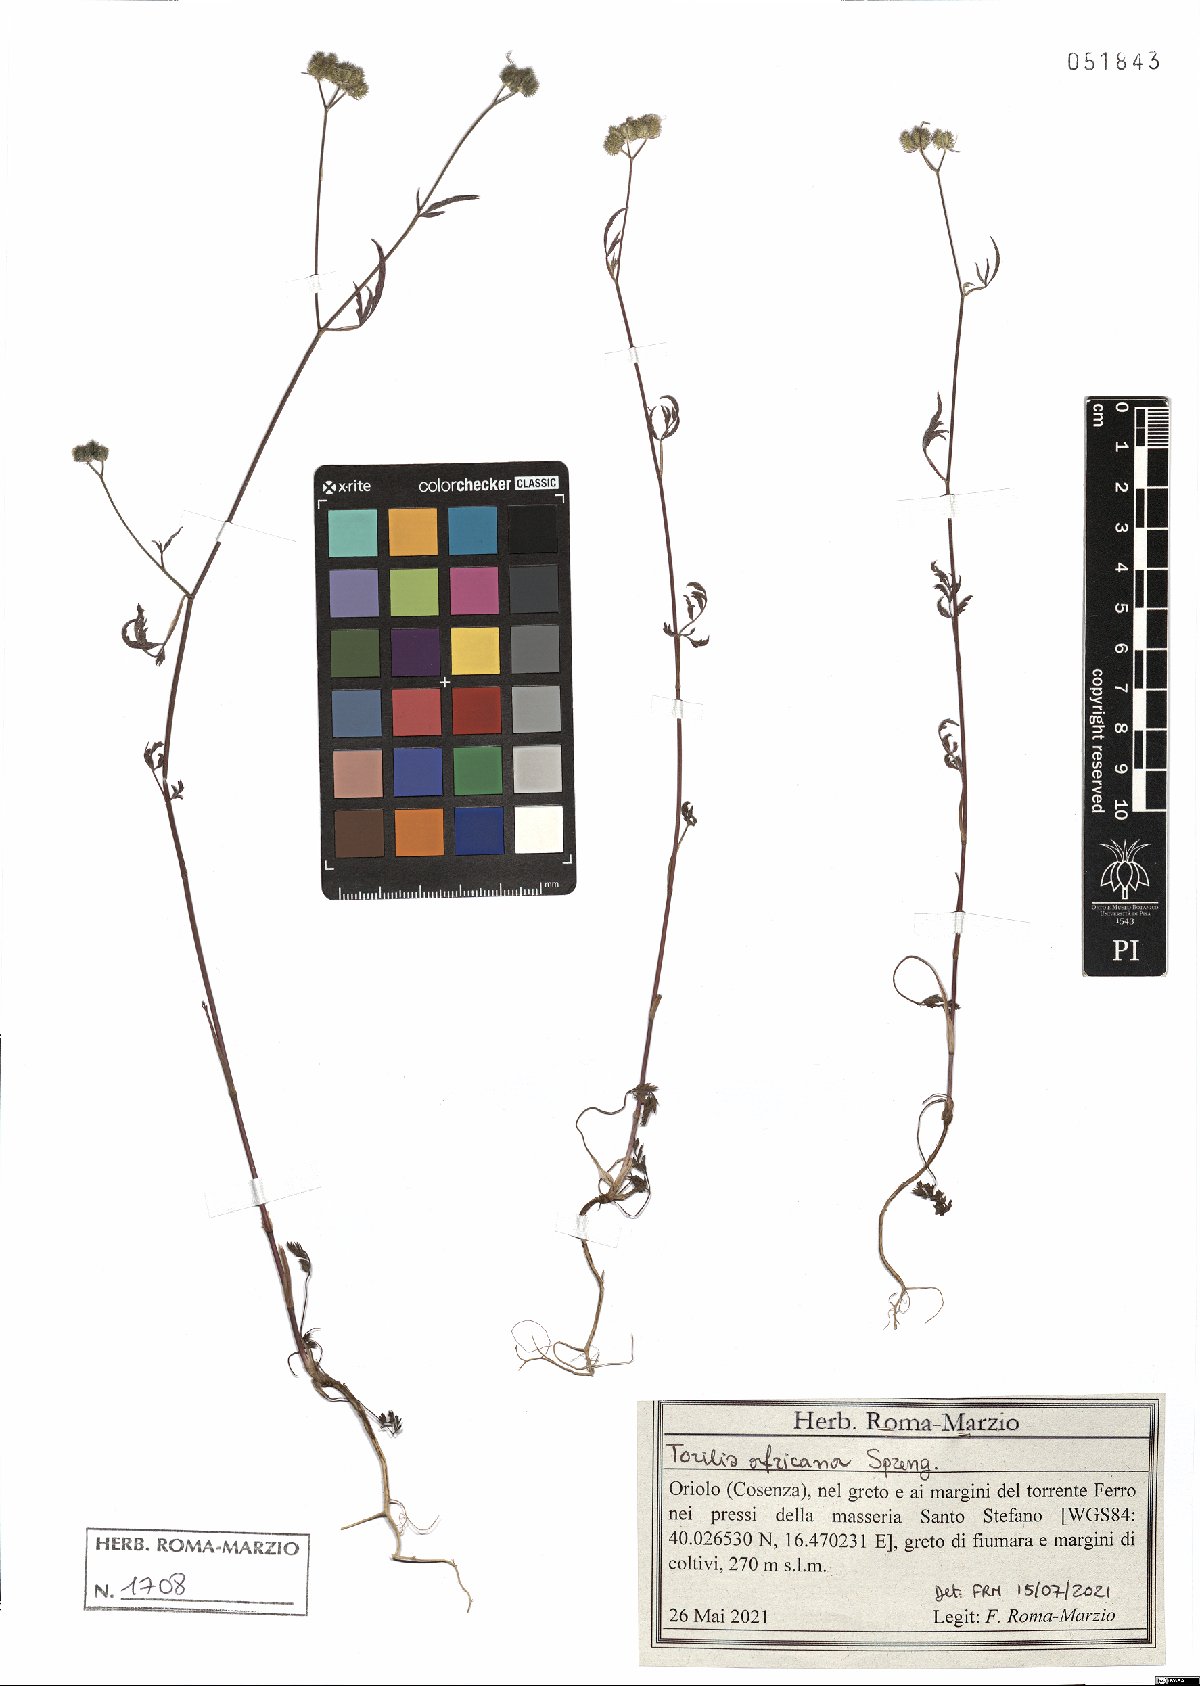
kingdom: Plantae
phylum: Tracheophyta
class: Magnoliopsida
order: Apiales
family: Apiaceae
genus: Torilis
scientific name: Torilis africana
